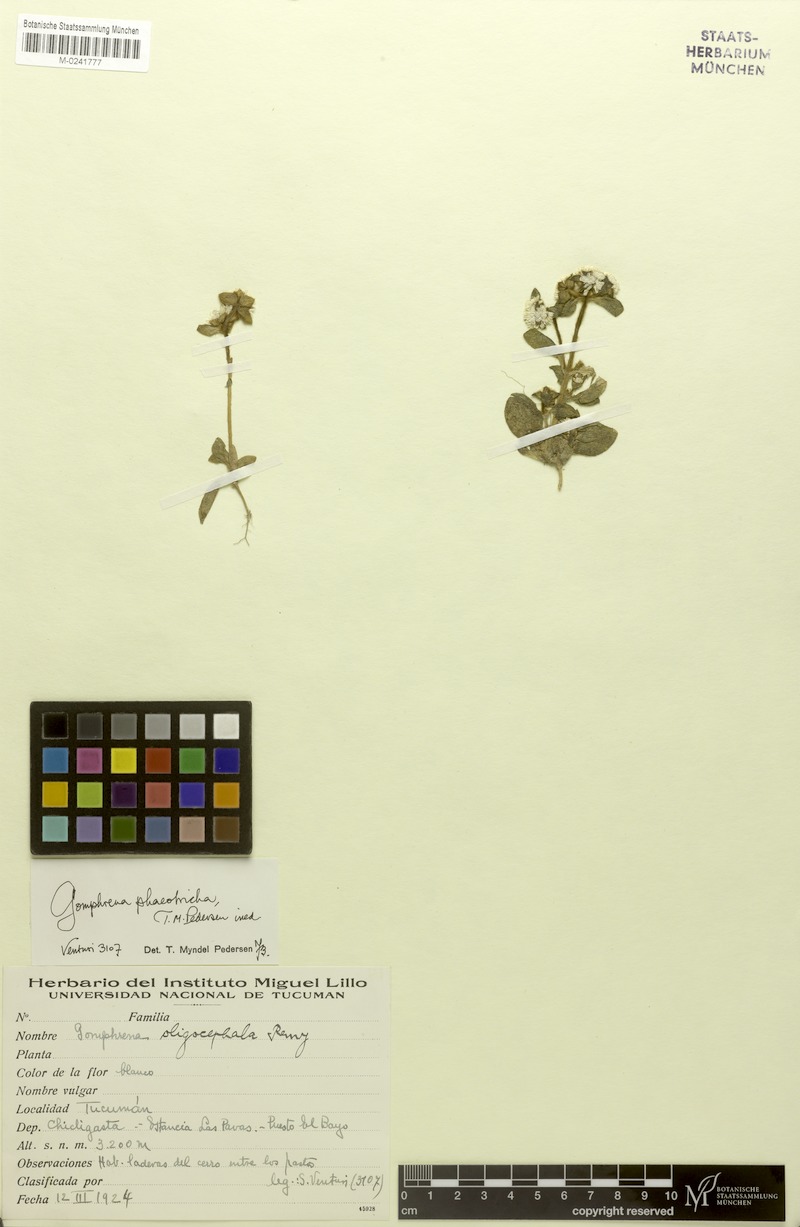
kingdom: Plantae
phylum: Tracheophyta
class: Magnoliopsida
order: Caryophyllales
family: Amaranthaceae
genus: Gomphrena
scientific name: Gomphrena phaeotricha
